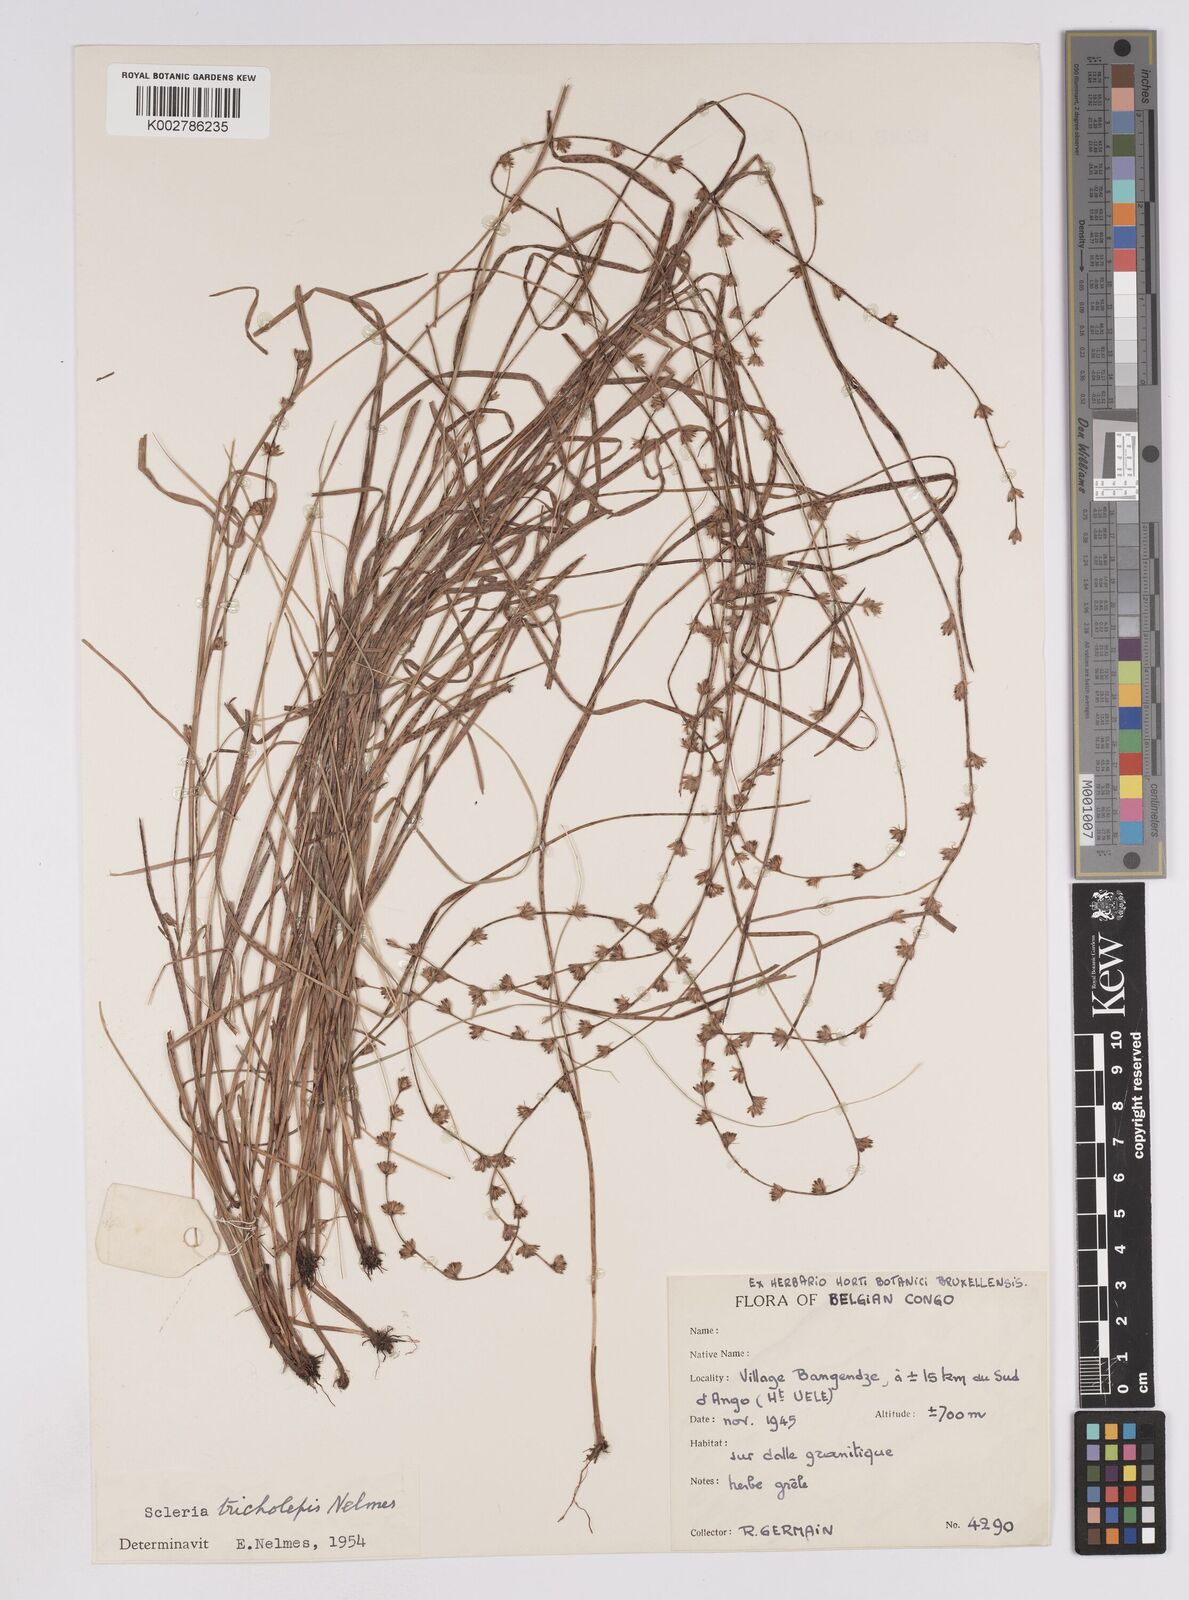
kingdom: Plantae
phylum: Tracheophyta
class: Liliopsida
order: Poales
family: Cyperaceae
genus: Scleria
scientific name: Scleria hirtella
